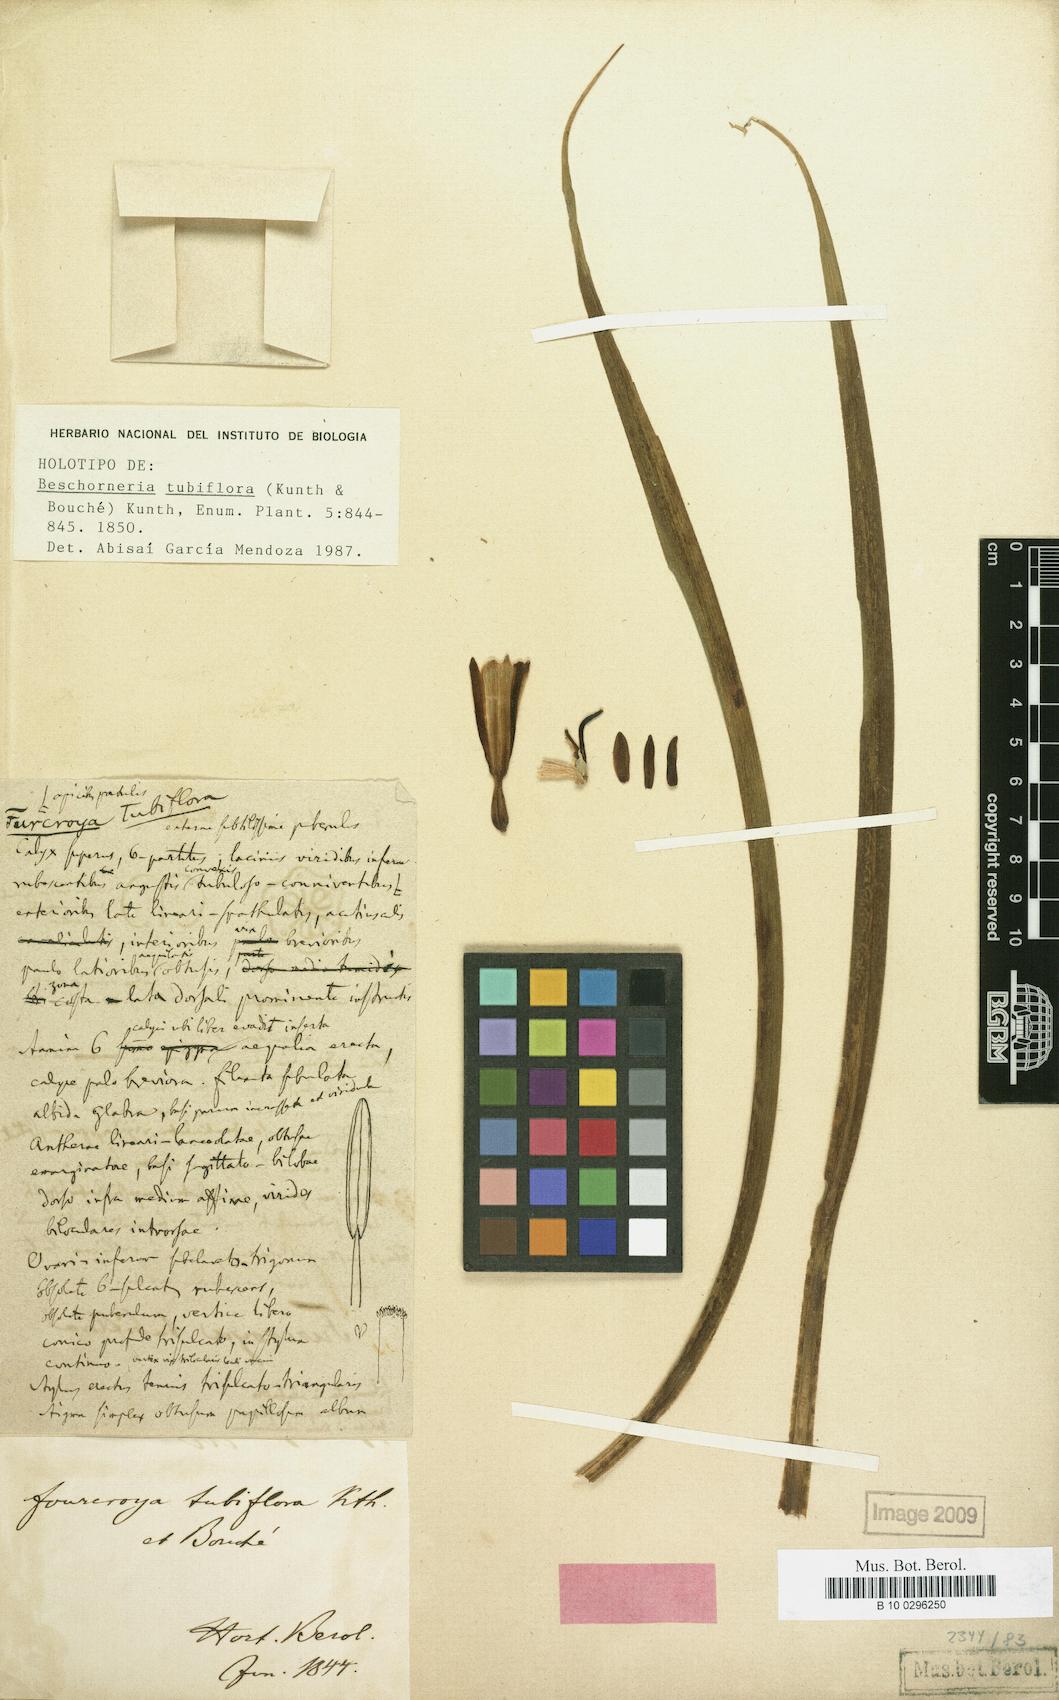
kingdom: Plantae
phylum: Tracheophyta
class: Liliopsida
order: Asparagales
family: Asparagaceae
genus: Beschorneria
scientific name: Beschorneria tubiflora
